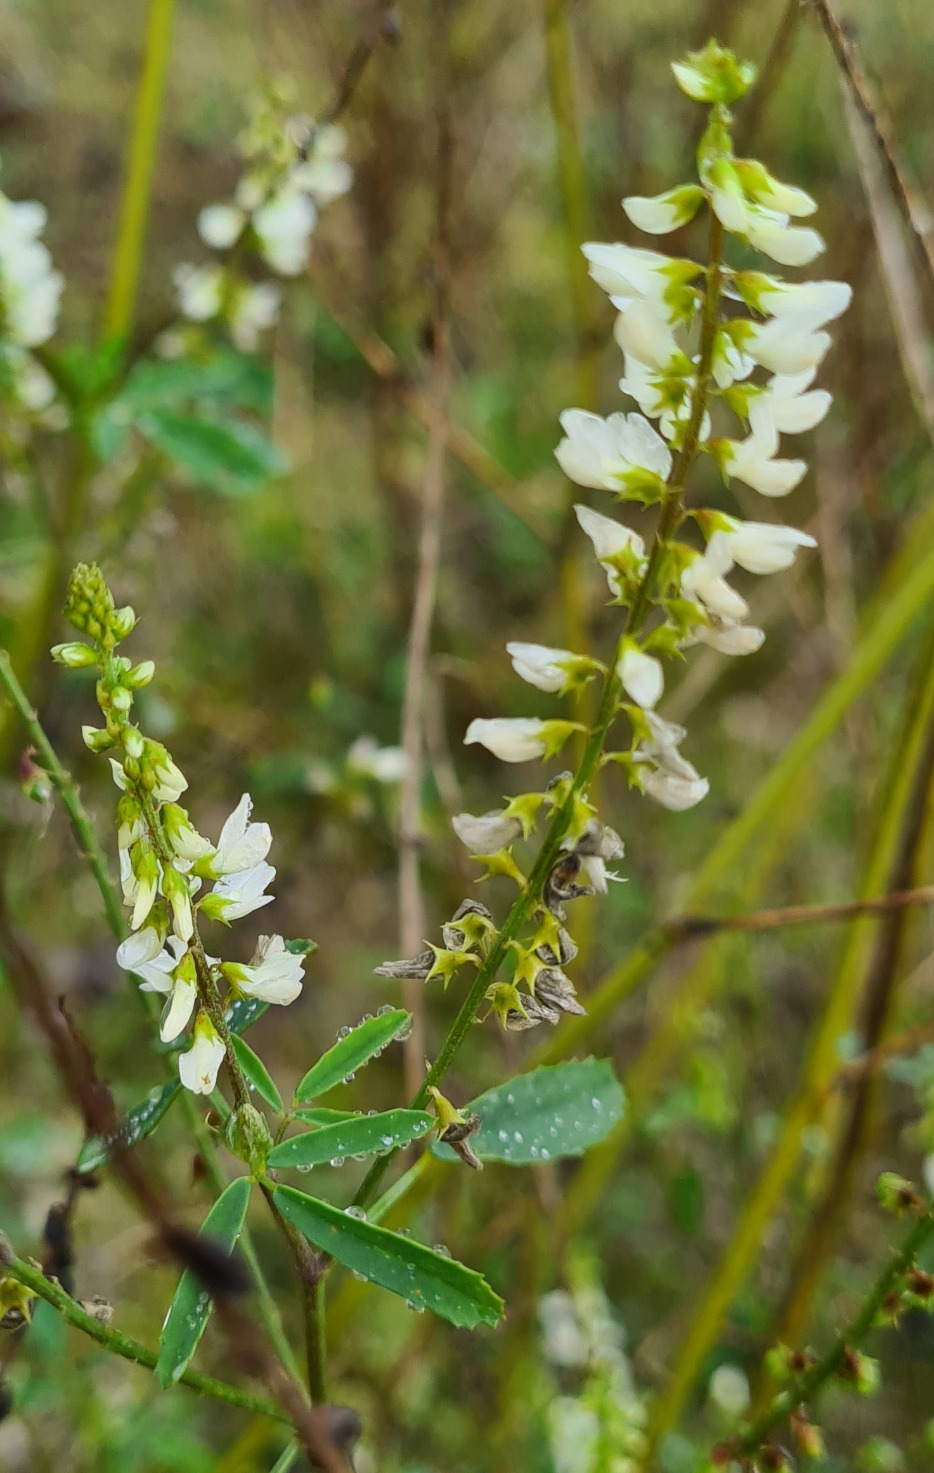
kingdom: Plantae
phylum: Tracheophyta
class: Magnoliopsida
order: Fabales
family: Fabaceae
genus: Melilotus
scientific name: Melilotus albus
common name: Hvid stenkløver
